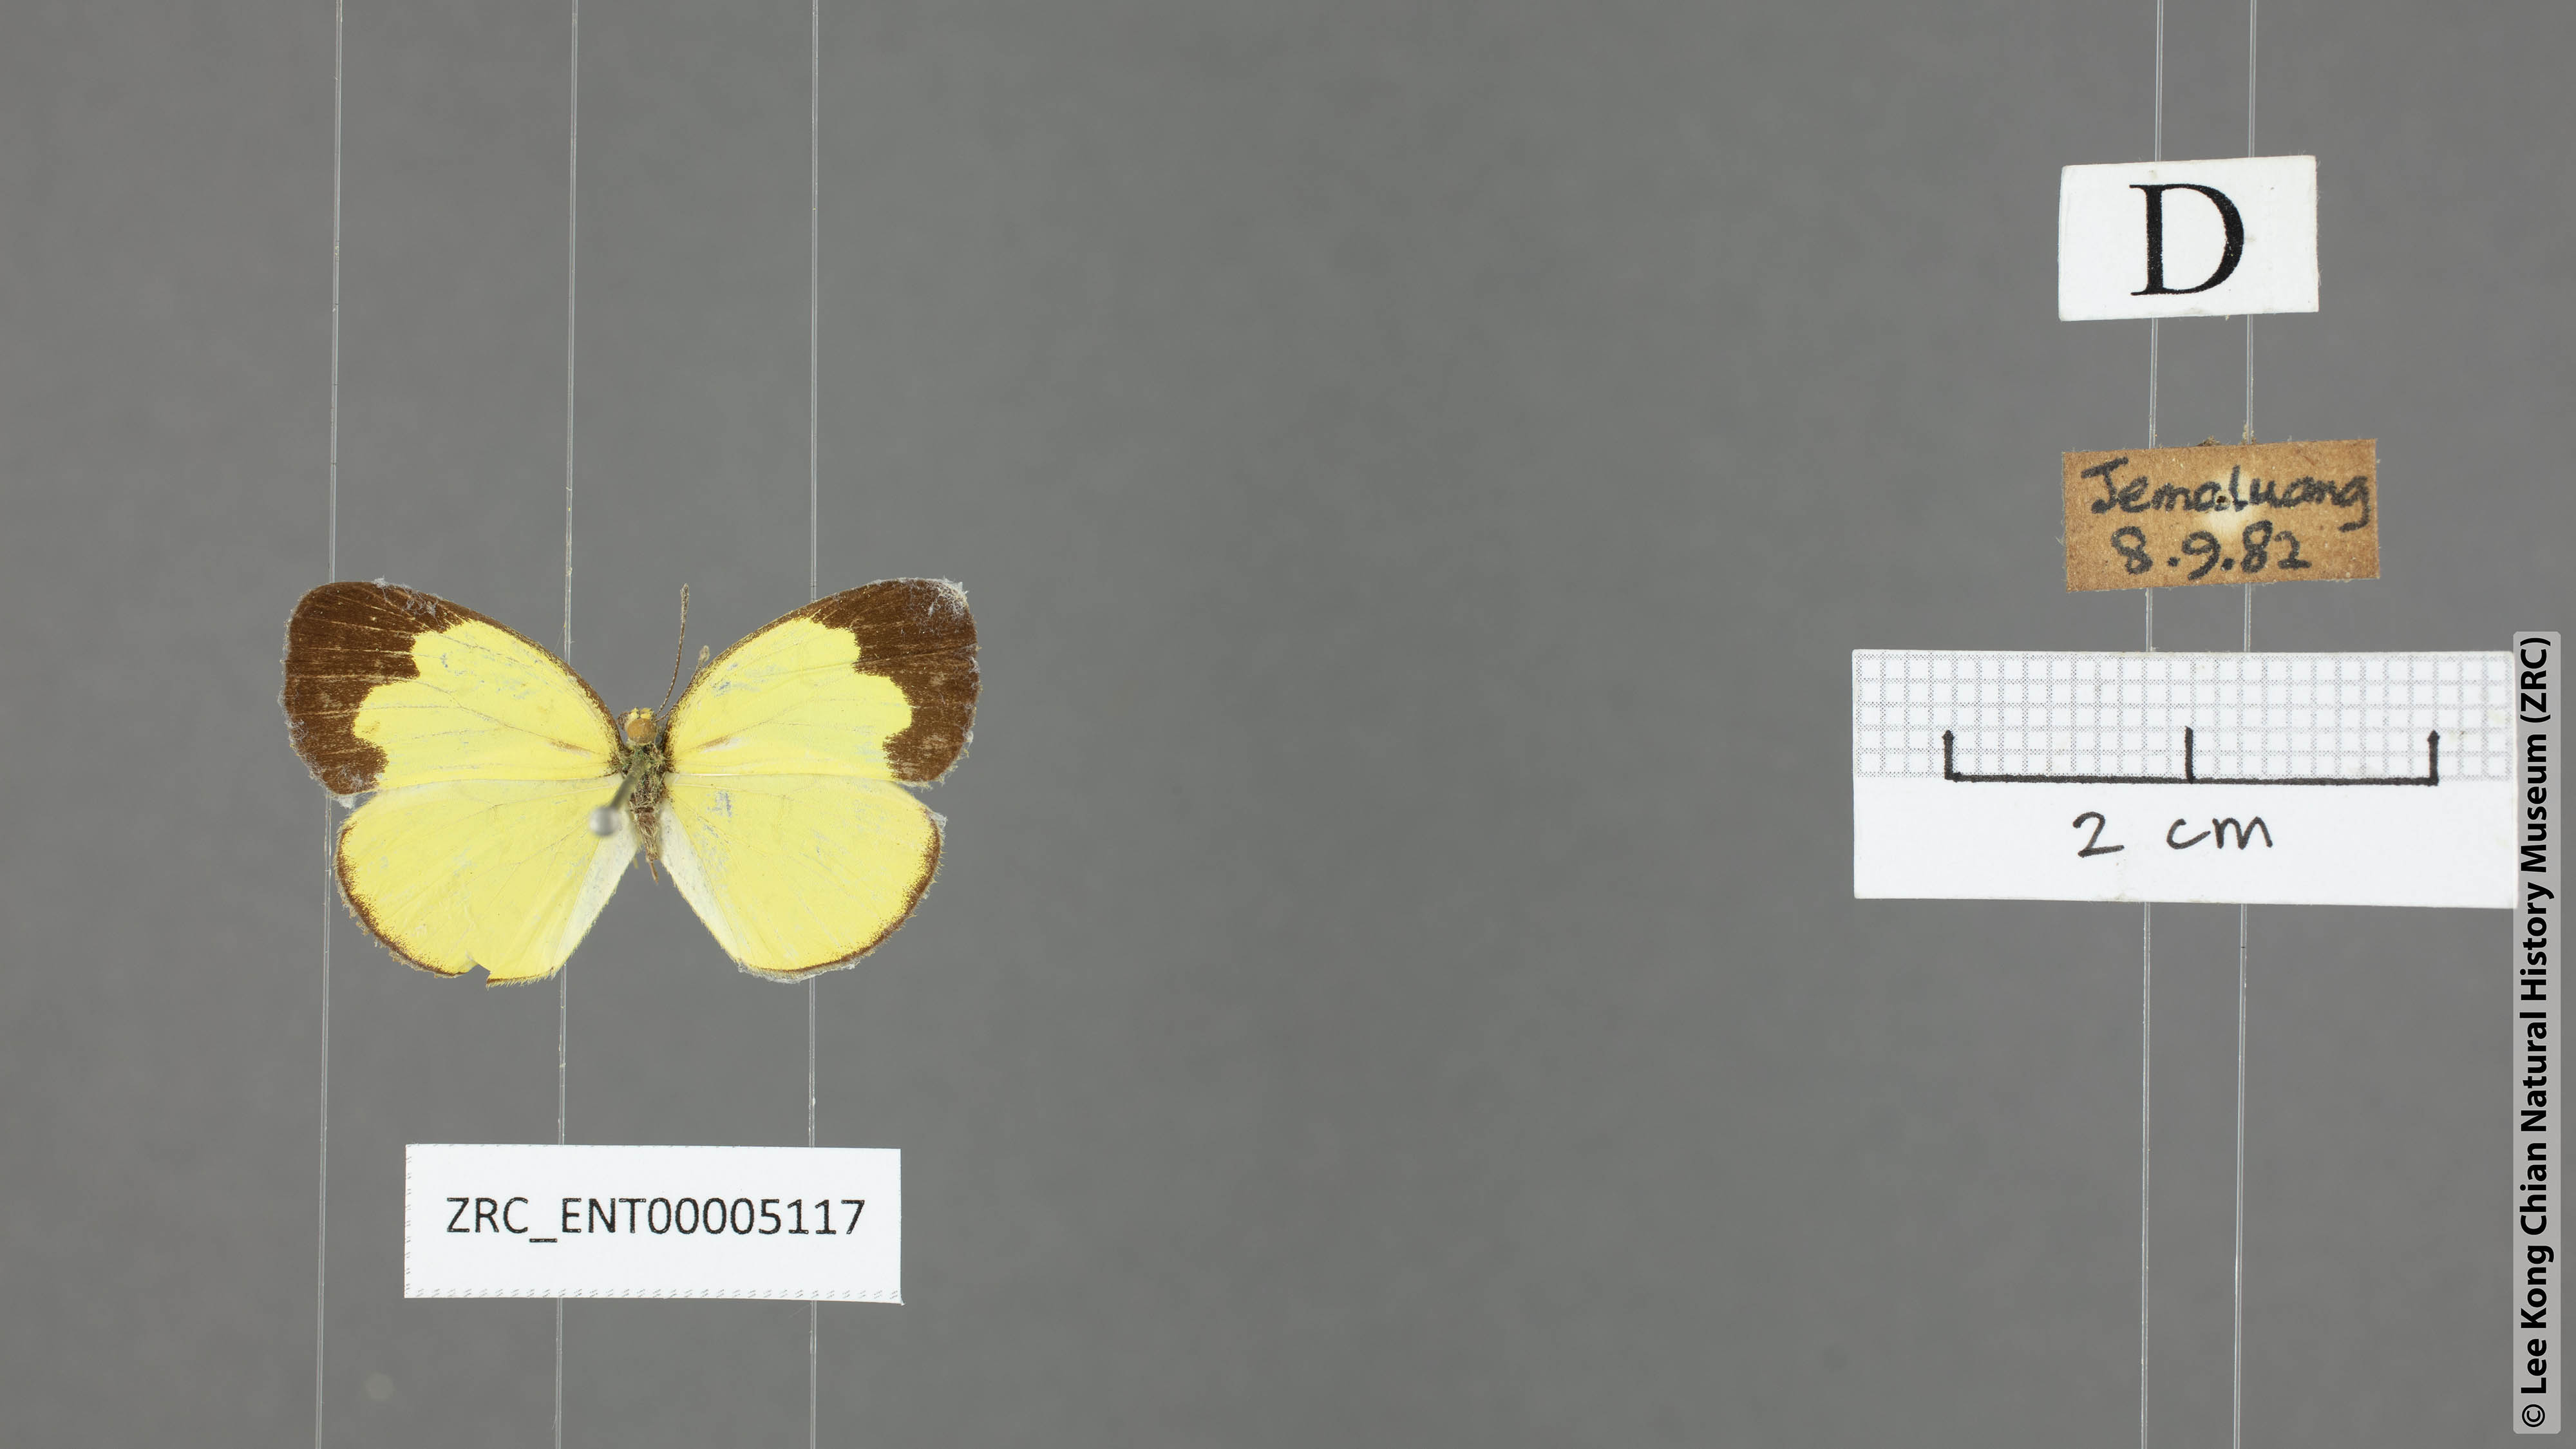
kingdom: Animalia
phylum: Arthropoda
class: Insecta
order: Lepidoptera
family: Pieridae
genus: Eurema
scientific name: Eurema ada
